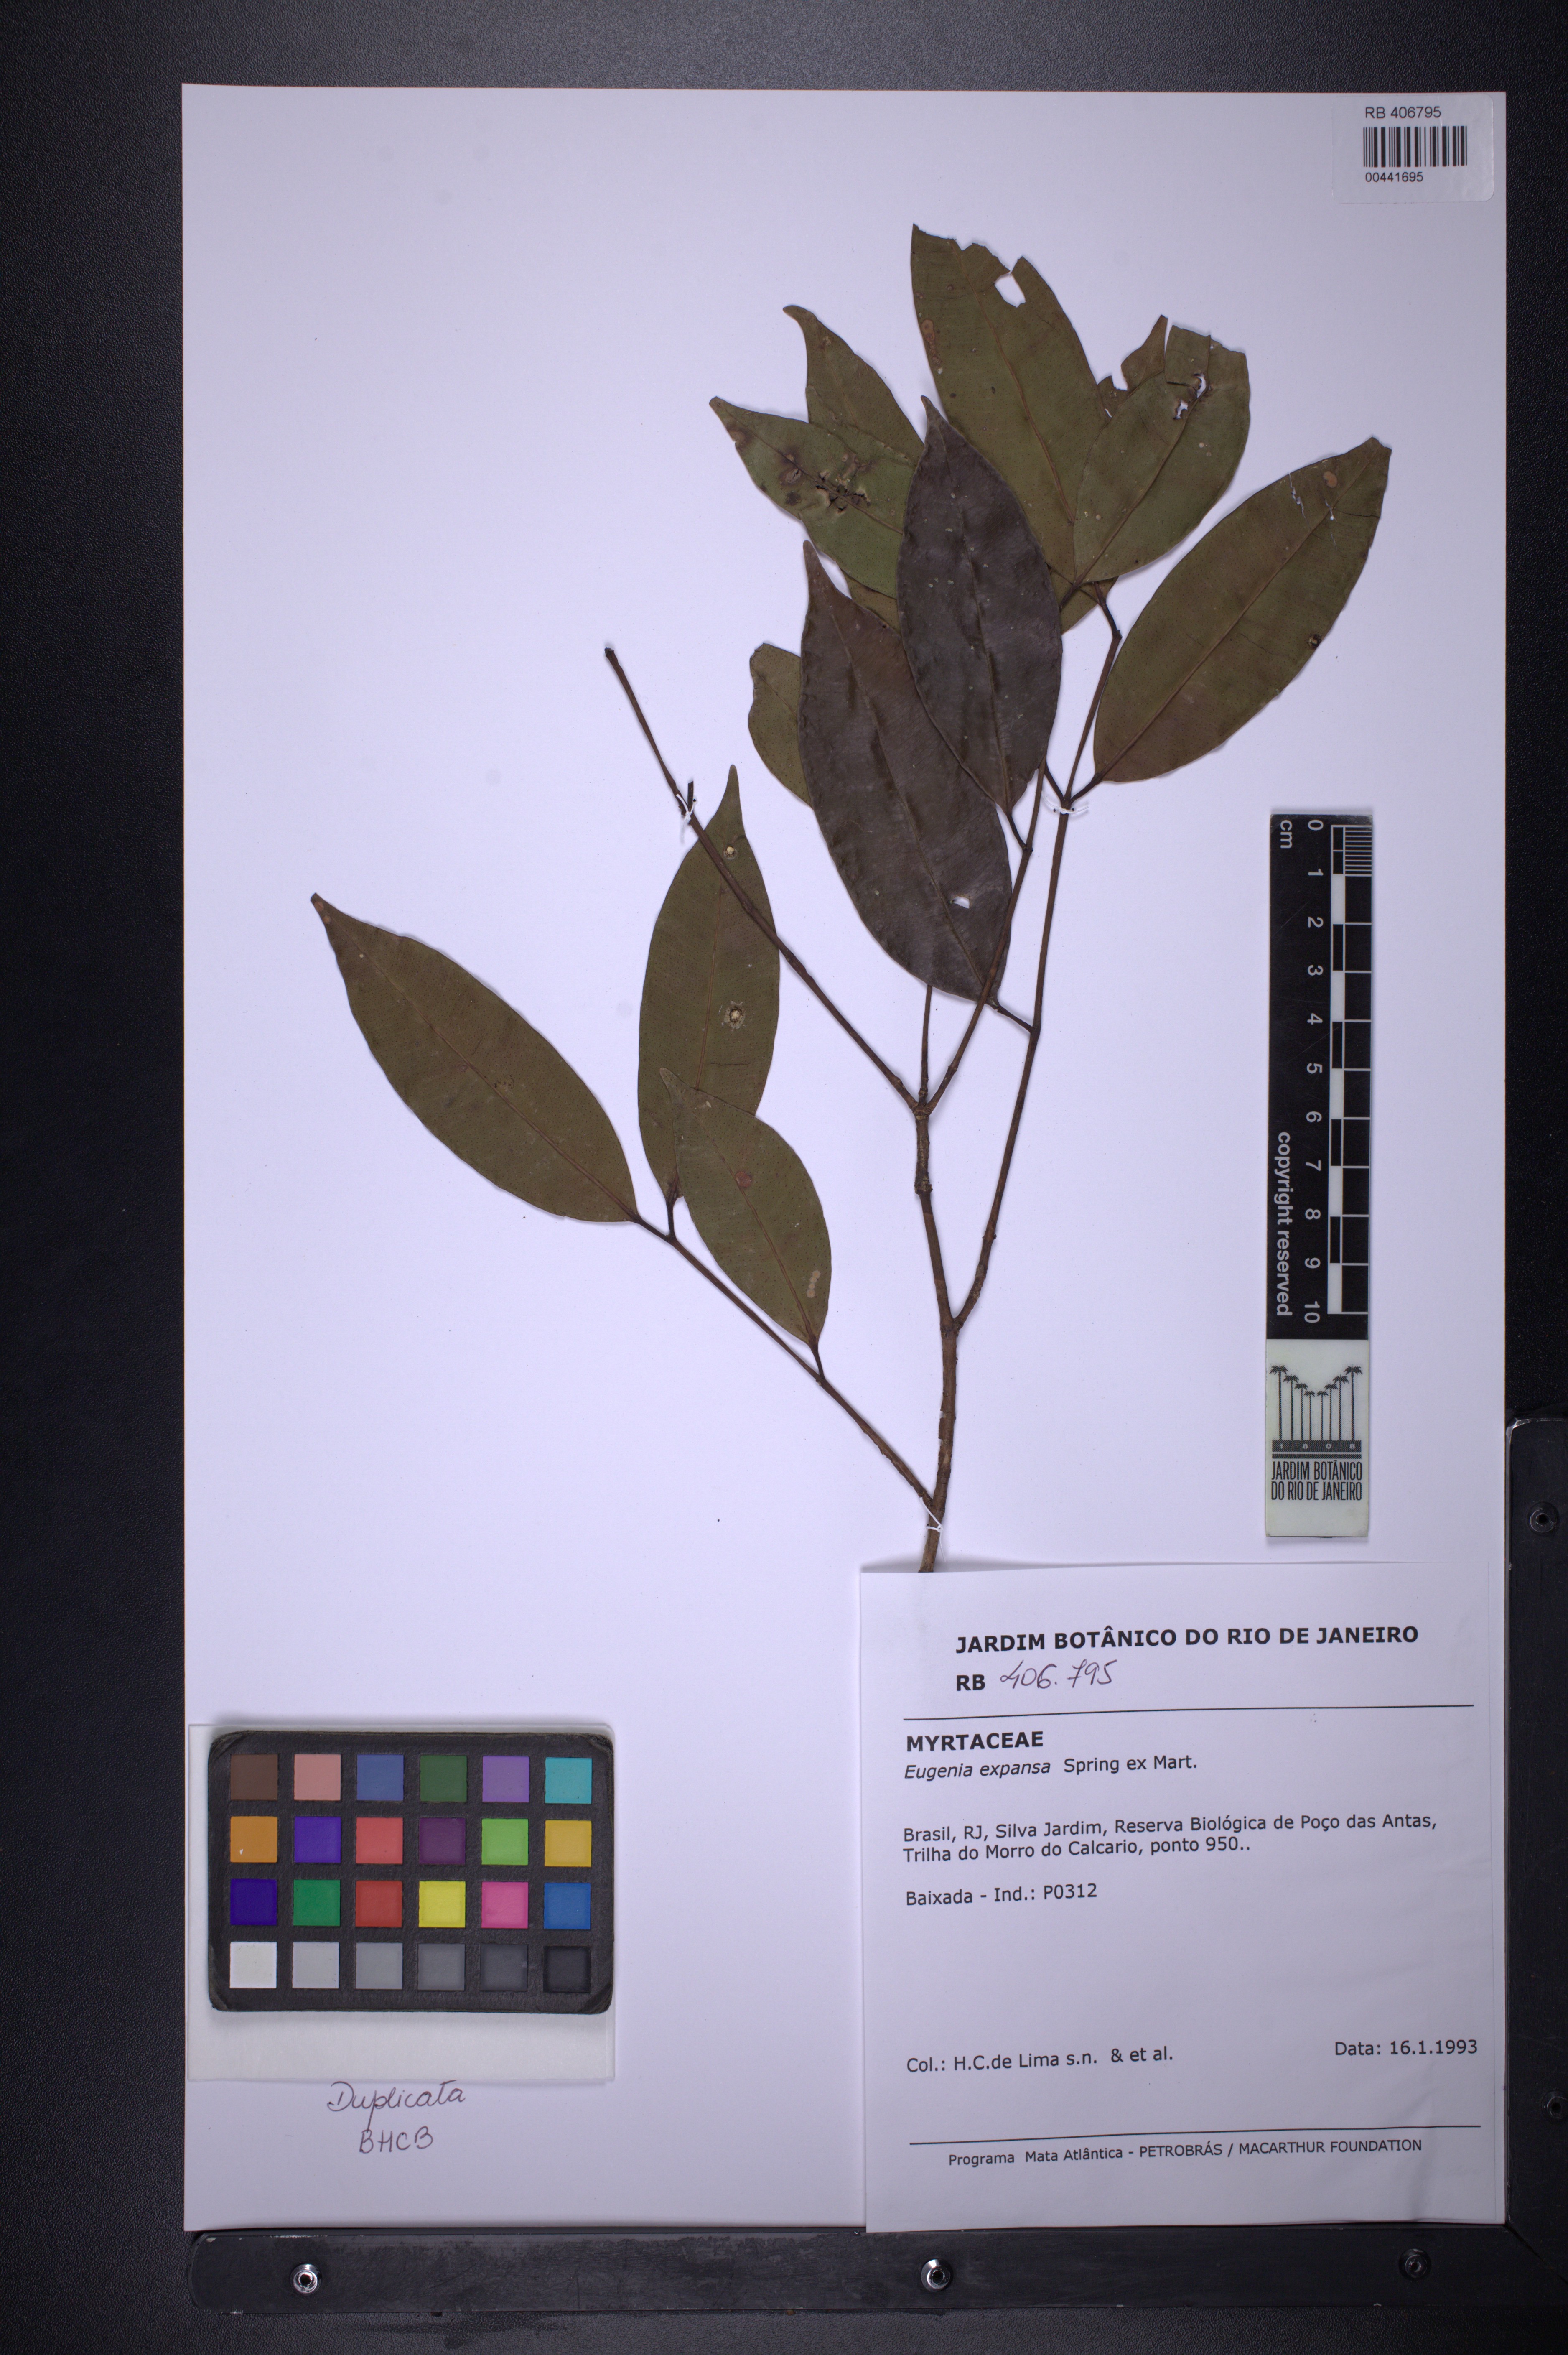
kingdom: Plantae
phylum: Tracheophyta
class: Magnoliopsida
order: Myrtales
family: Myrtaceae
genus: Eugenia
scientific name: Eugenia expansa
